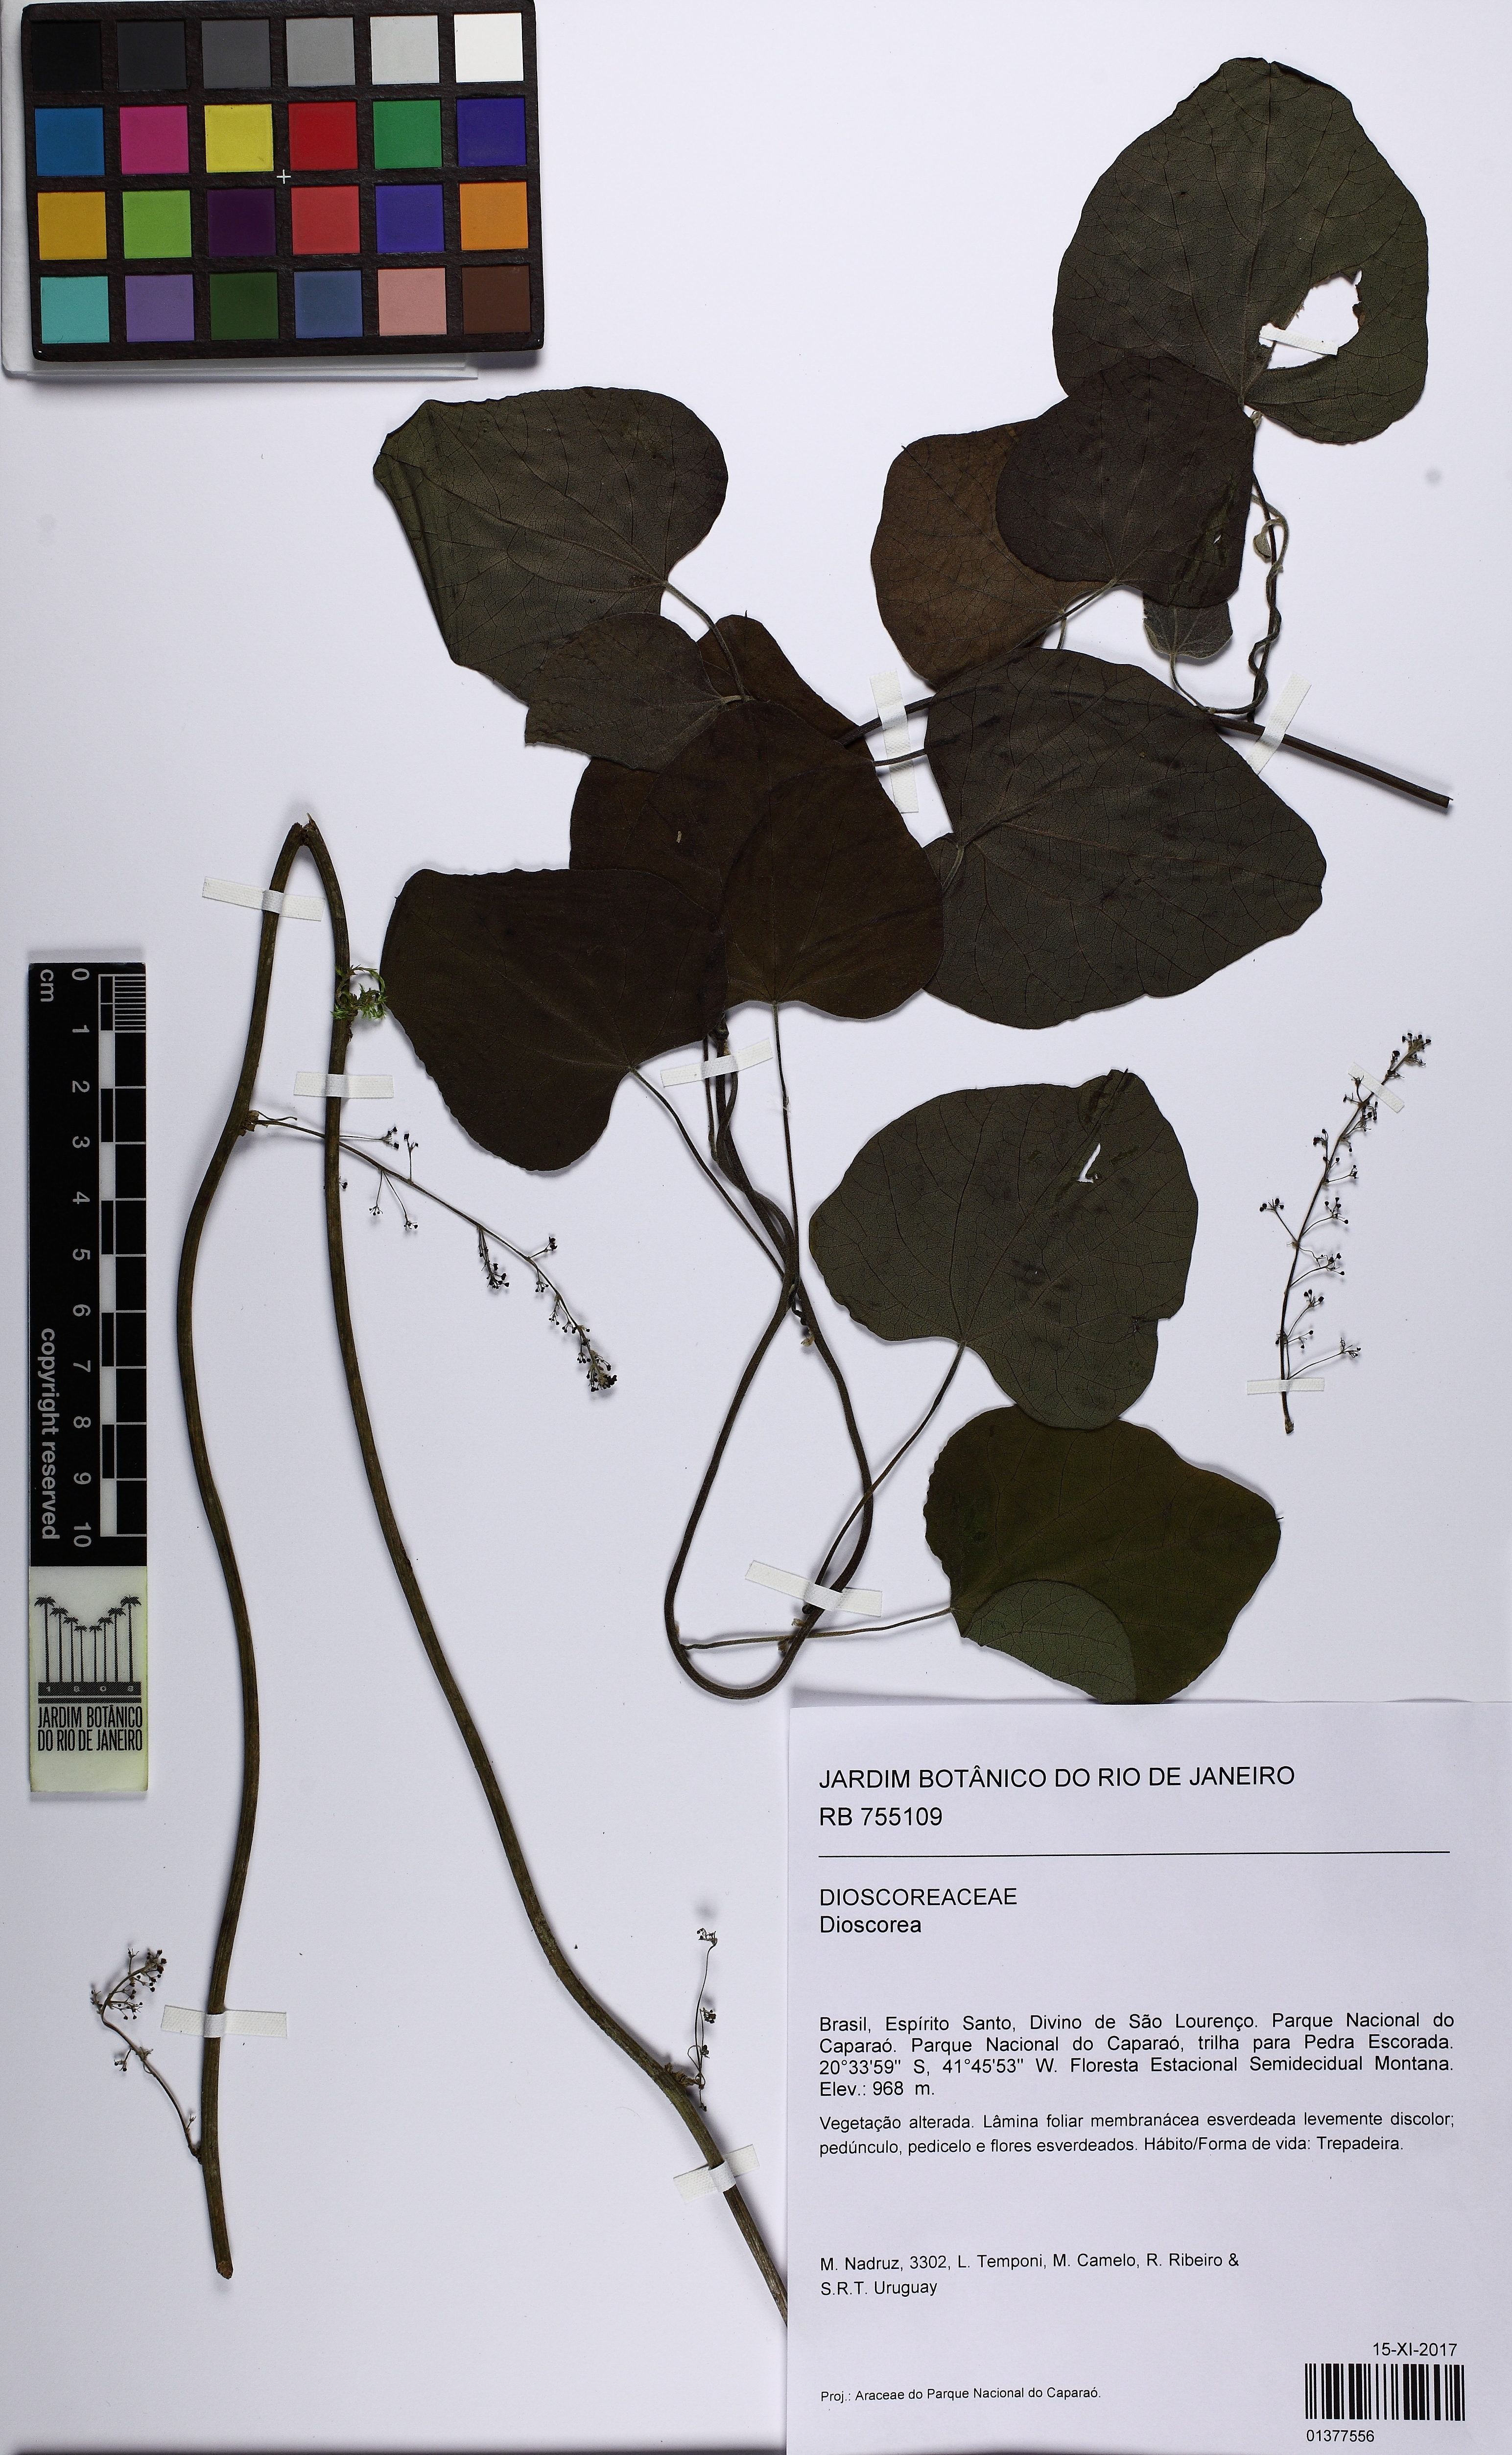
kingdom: Plantae
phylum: Tracheophyta
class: Magnoliopsida
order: Ranunculales
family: Menispermaceae
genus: Cissampelos
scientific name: Cissampelos andromorpha
